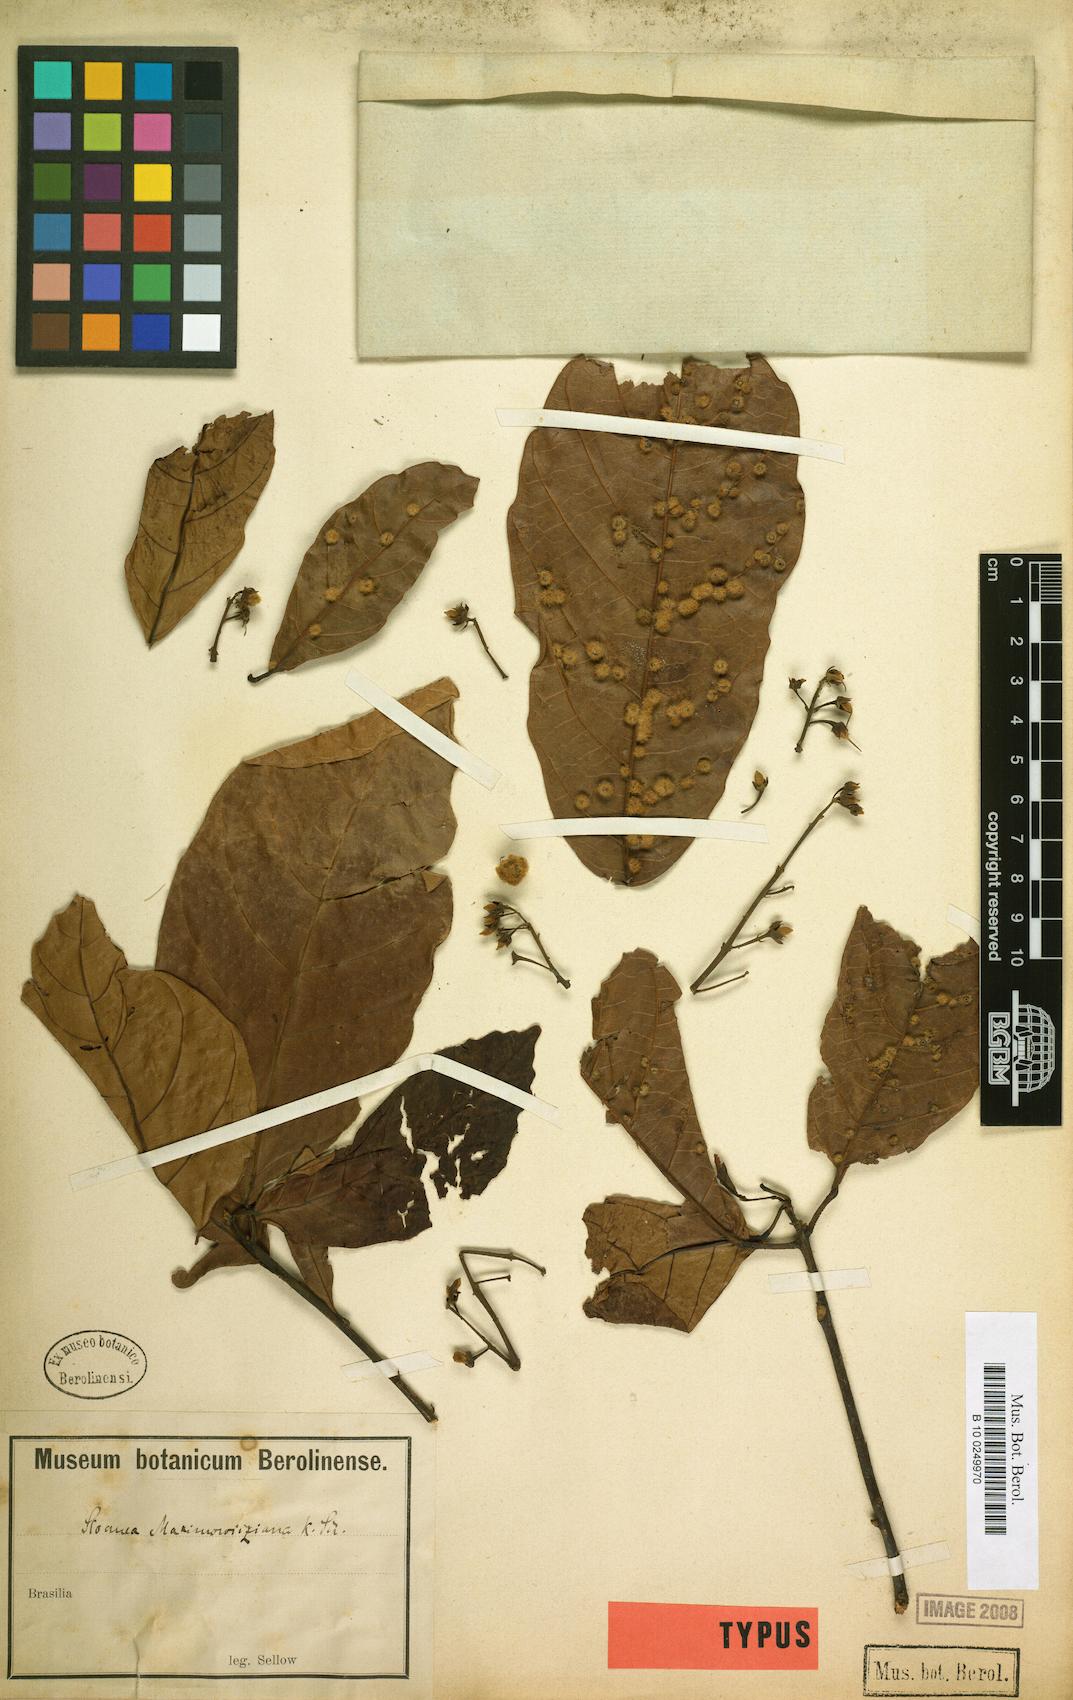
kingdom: Plantae
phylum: Tracheophyta
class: Magnoliopsida
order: Oxalidales
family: Elaeocarpaceae
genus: Sloanea
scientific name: Sloanea guianensis
